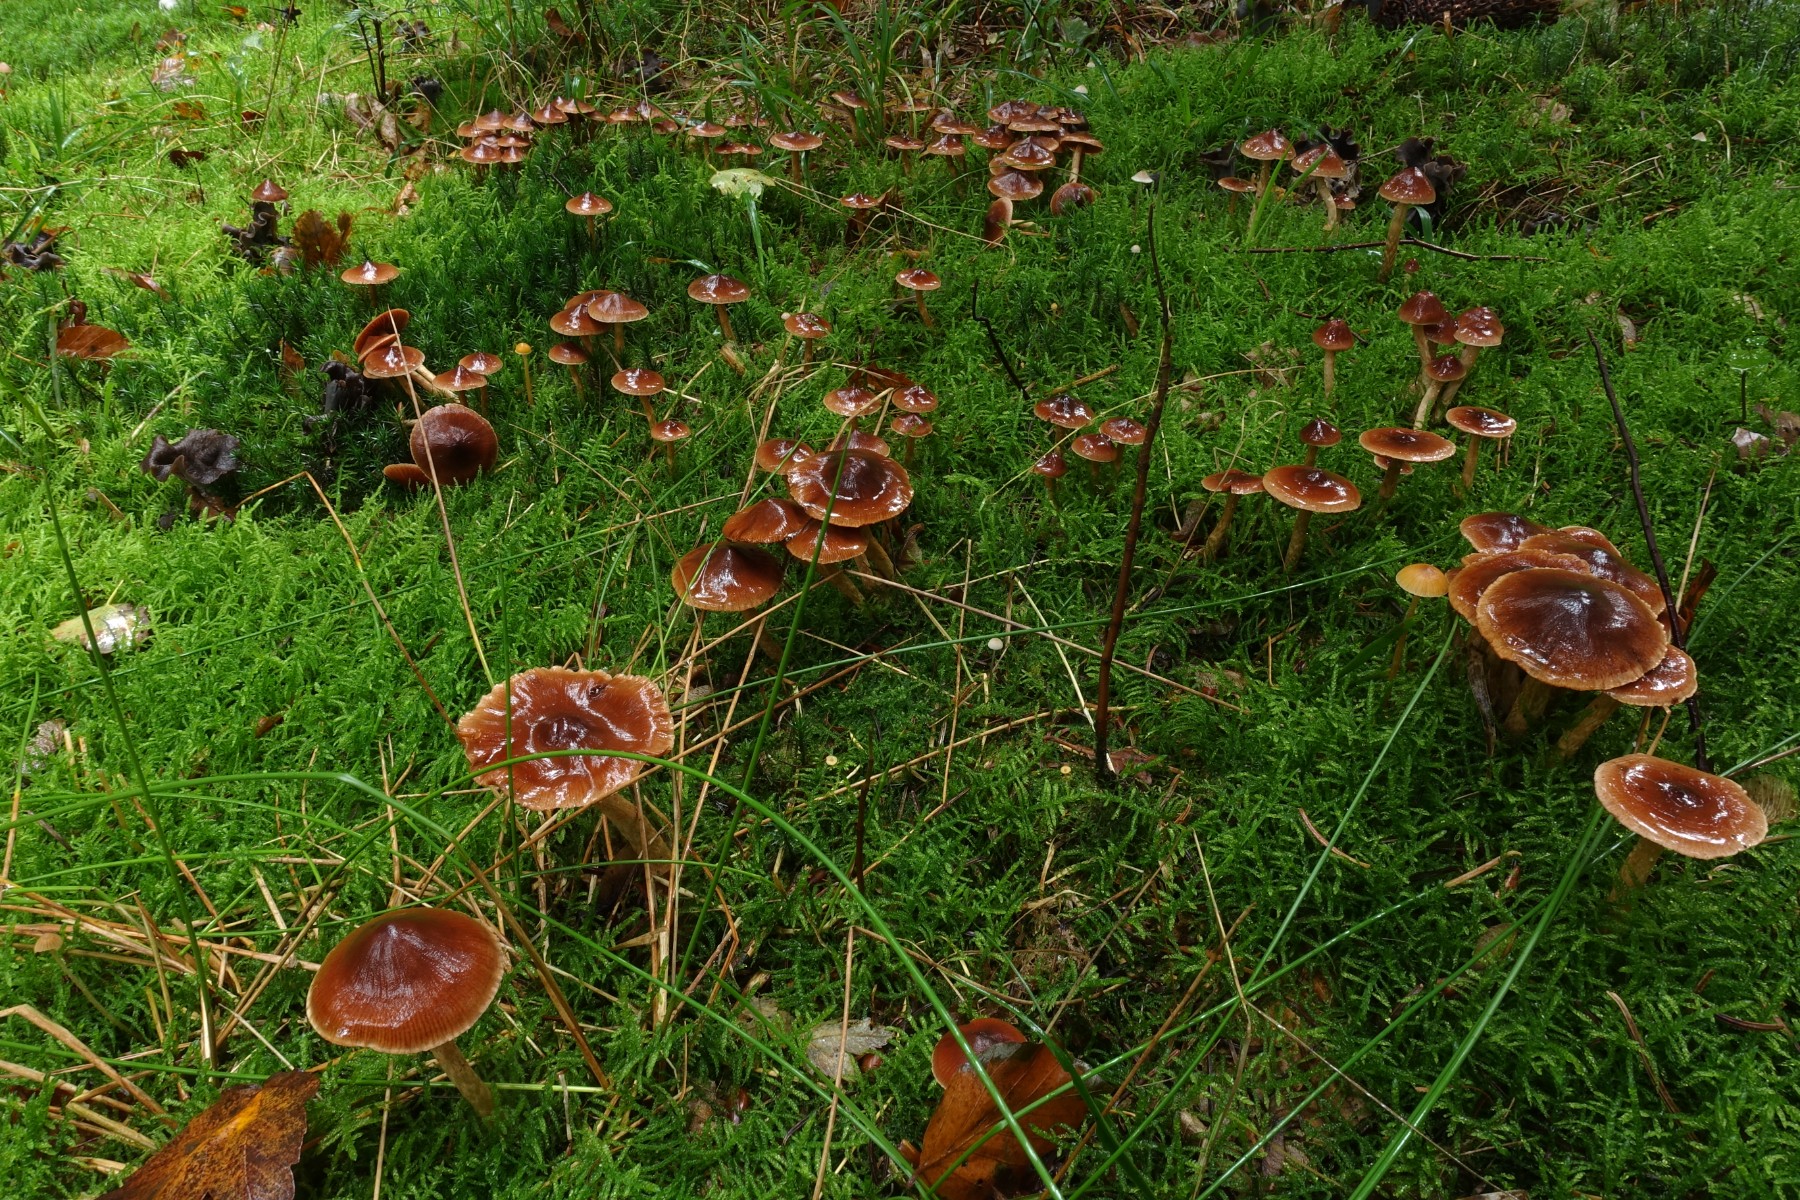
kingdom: Fungi
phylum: Basidiomycota
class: Agaricomycetes
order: Agaricales
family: Cortinariaceae
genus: Cortinarius
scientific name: Cortinarius
